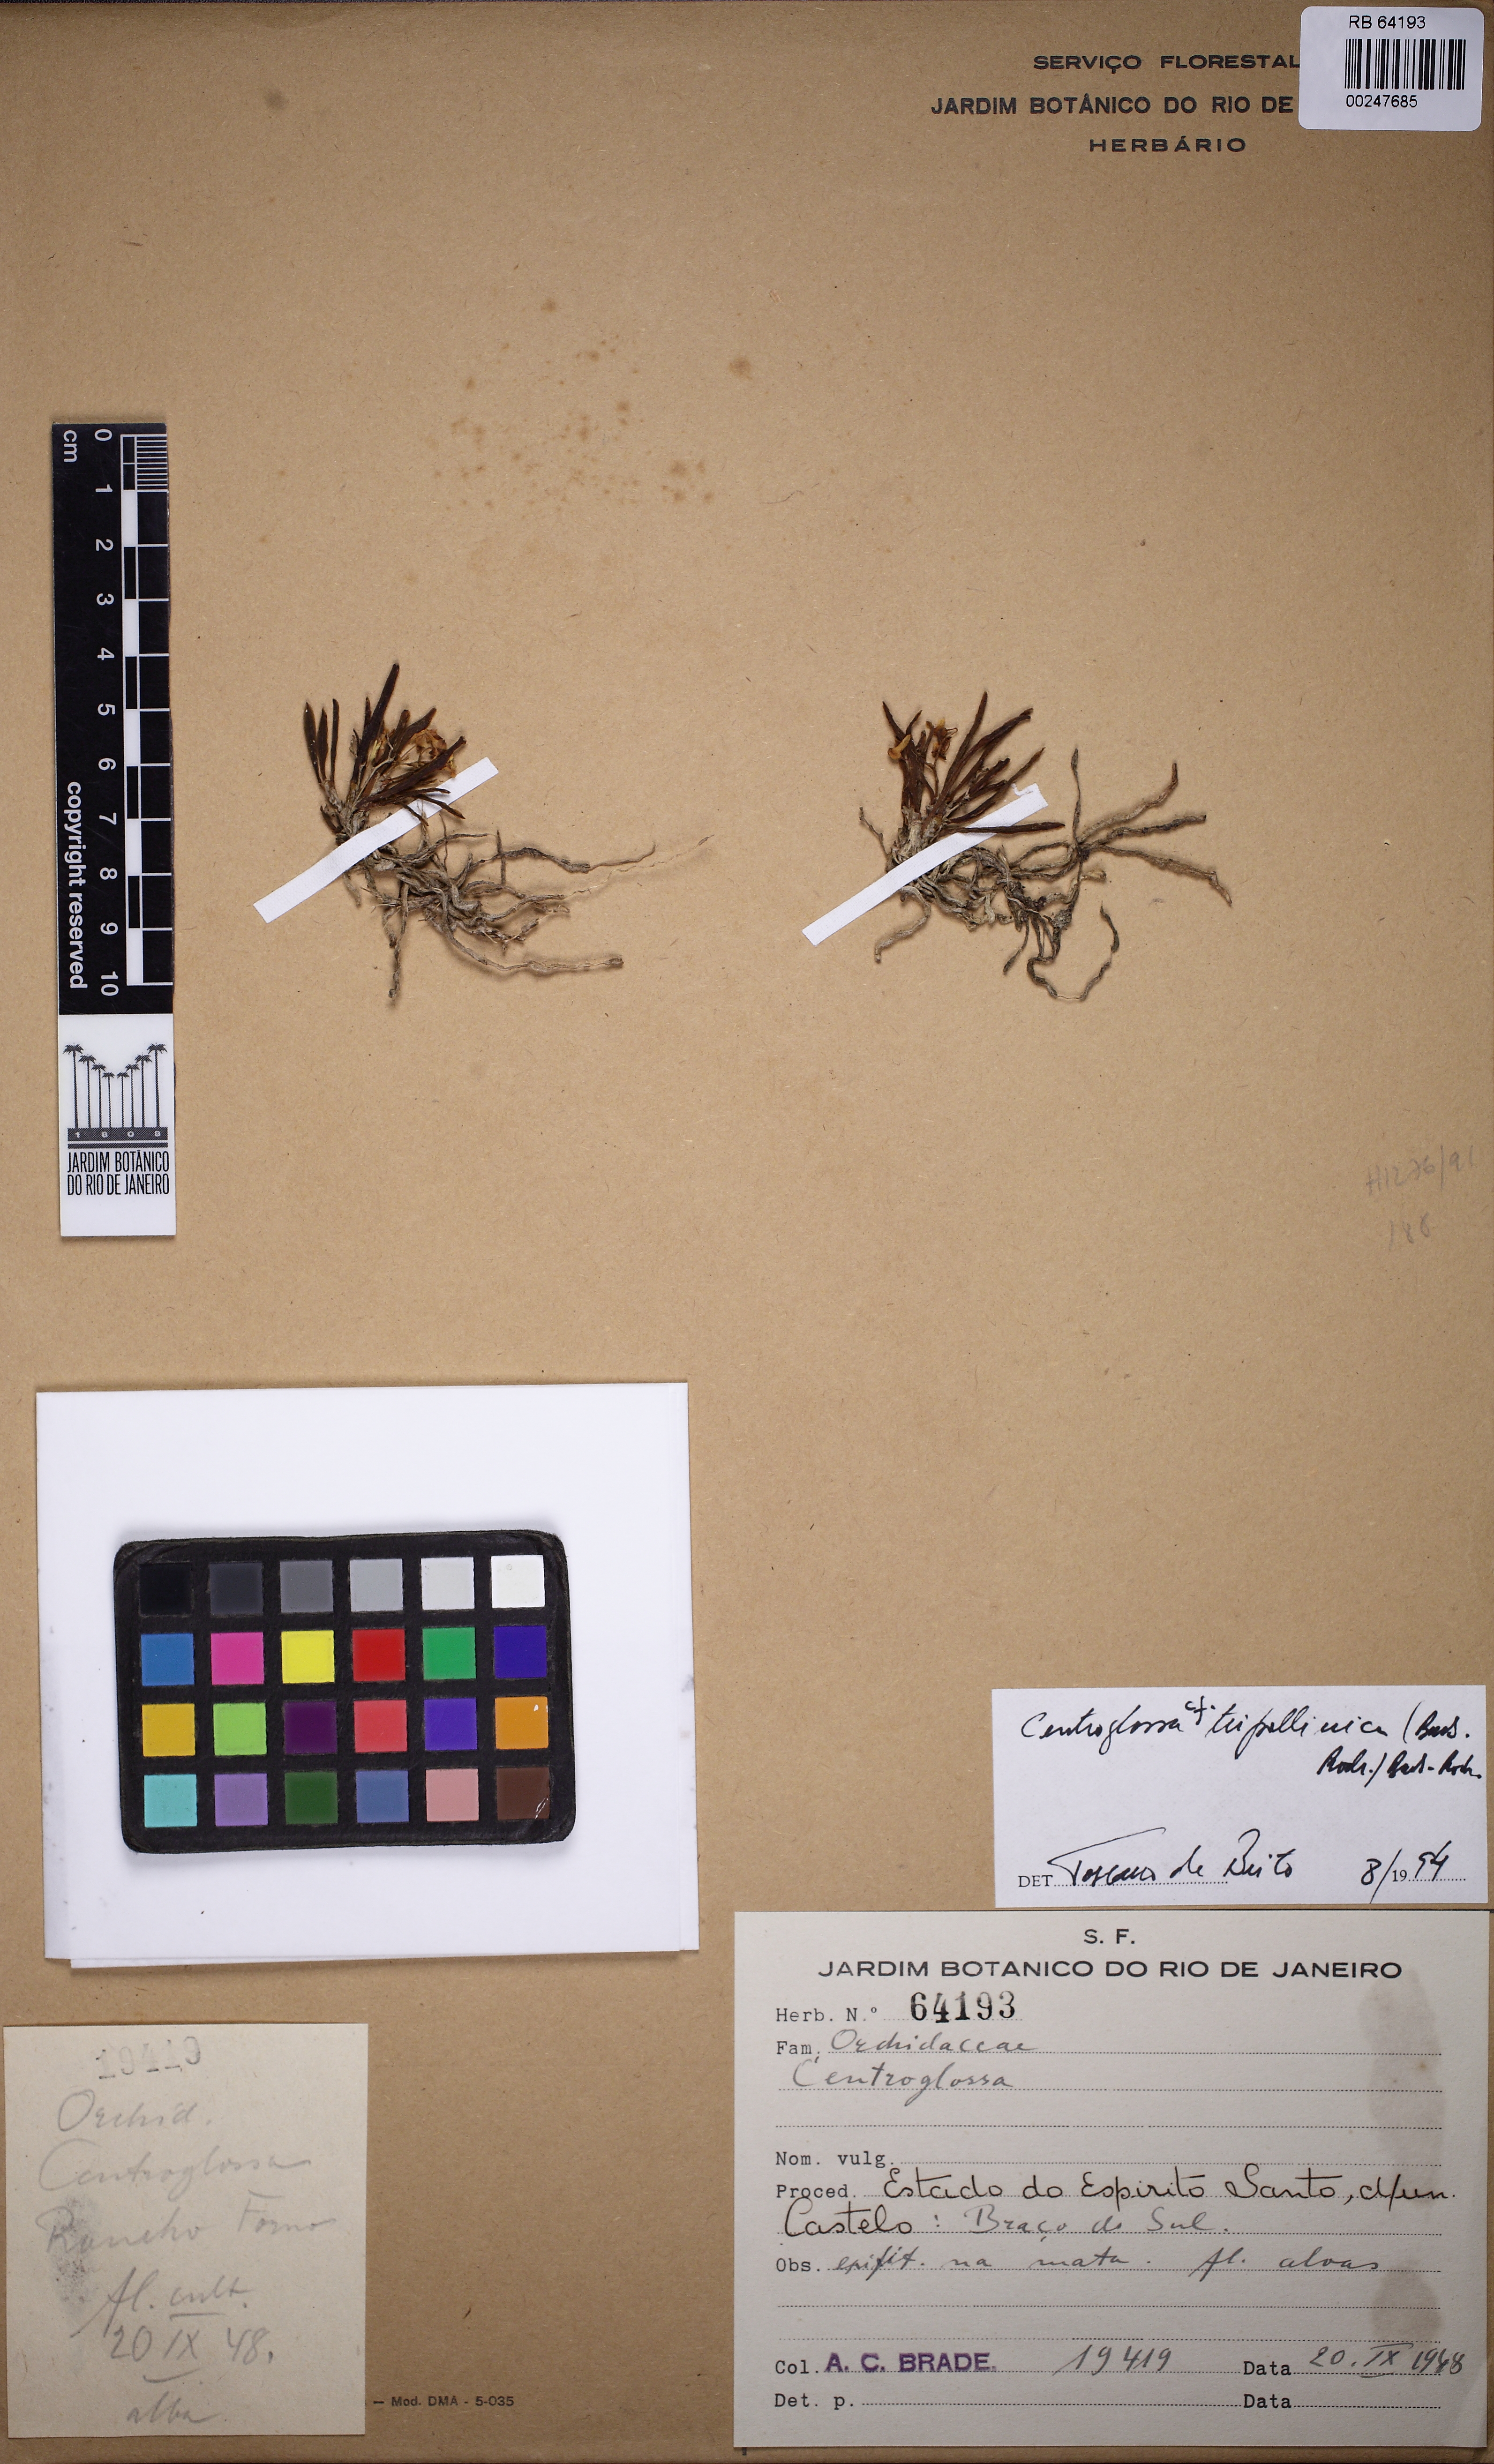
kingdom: Plantae
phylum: Tracheophyta
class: Liliopsida
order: Asparagales
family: Orchidaceae
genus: Centroglossa
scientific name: Centroglossa tripollinica
